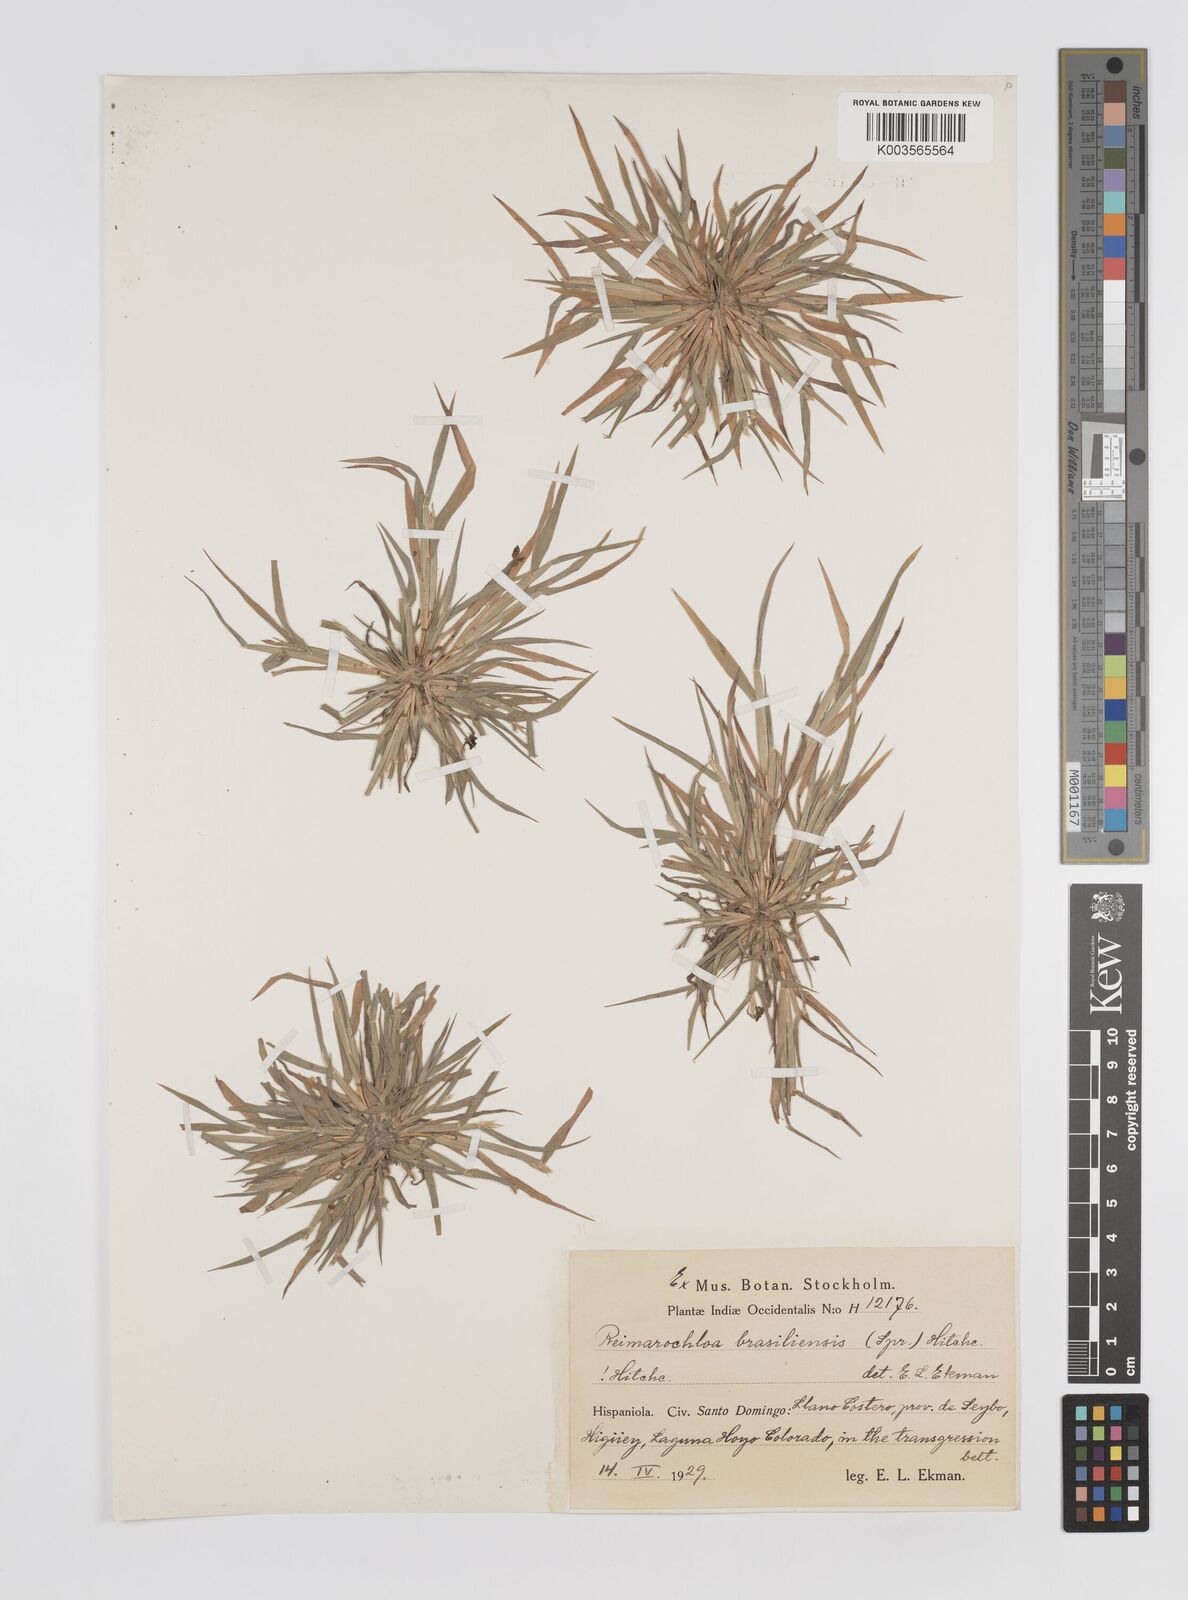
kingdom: Plantae
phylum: Tracheophyta
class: Liliopsida
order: Poales
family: Poaceae
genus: Paspalum
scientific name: Paspalum stagnophilum
